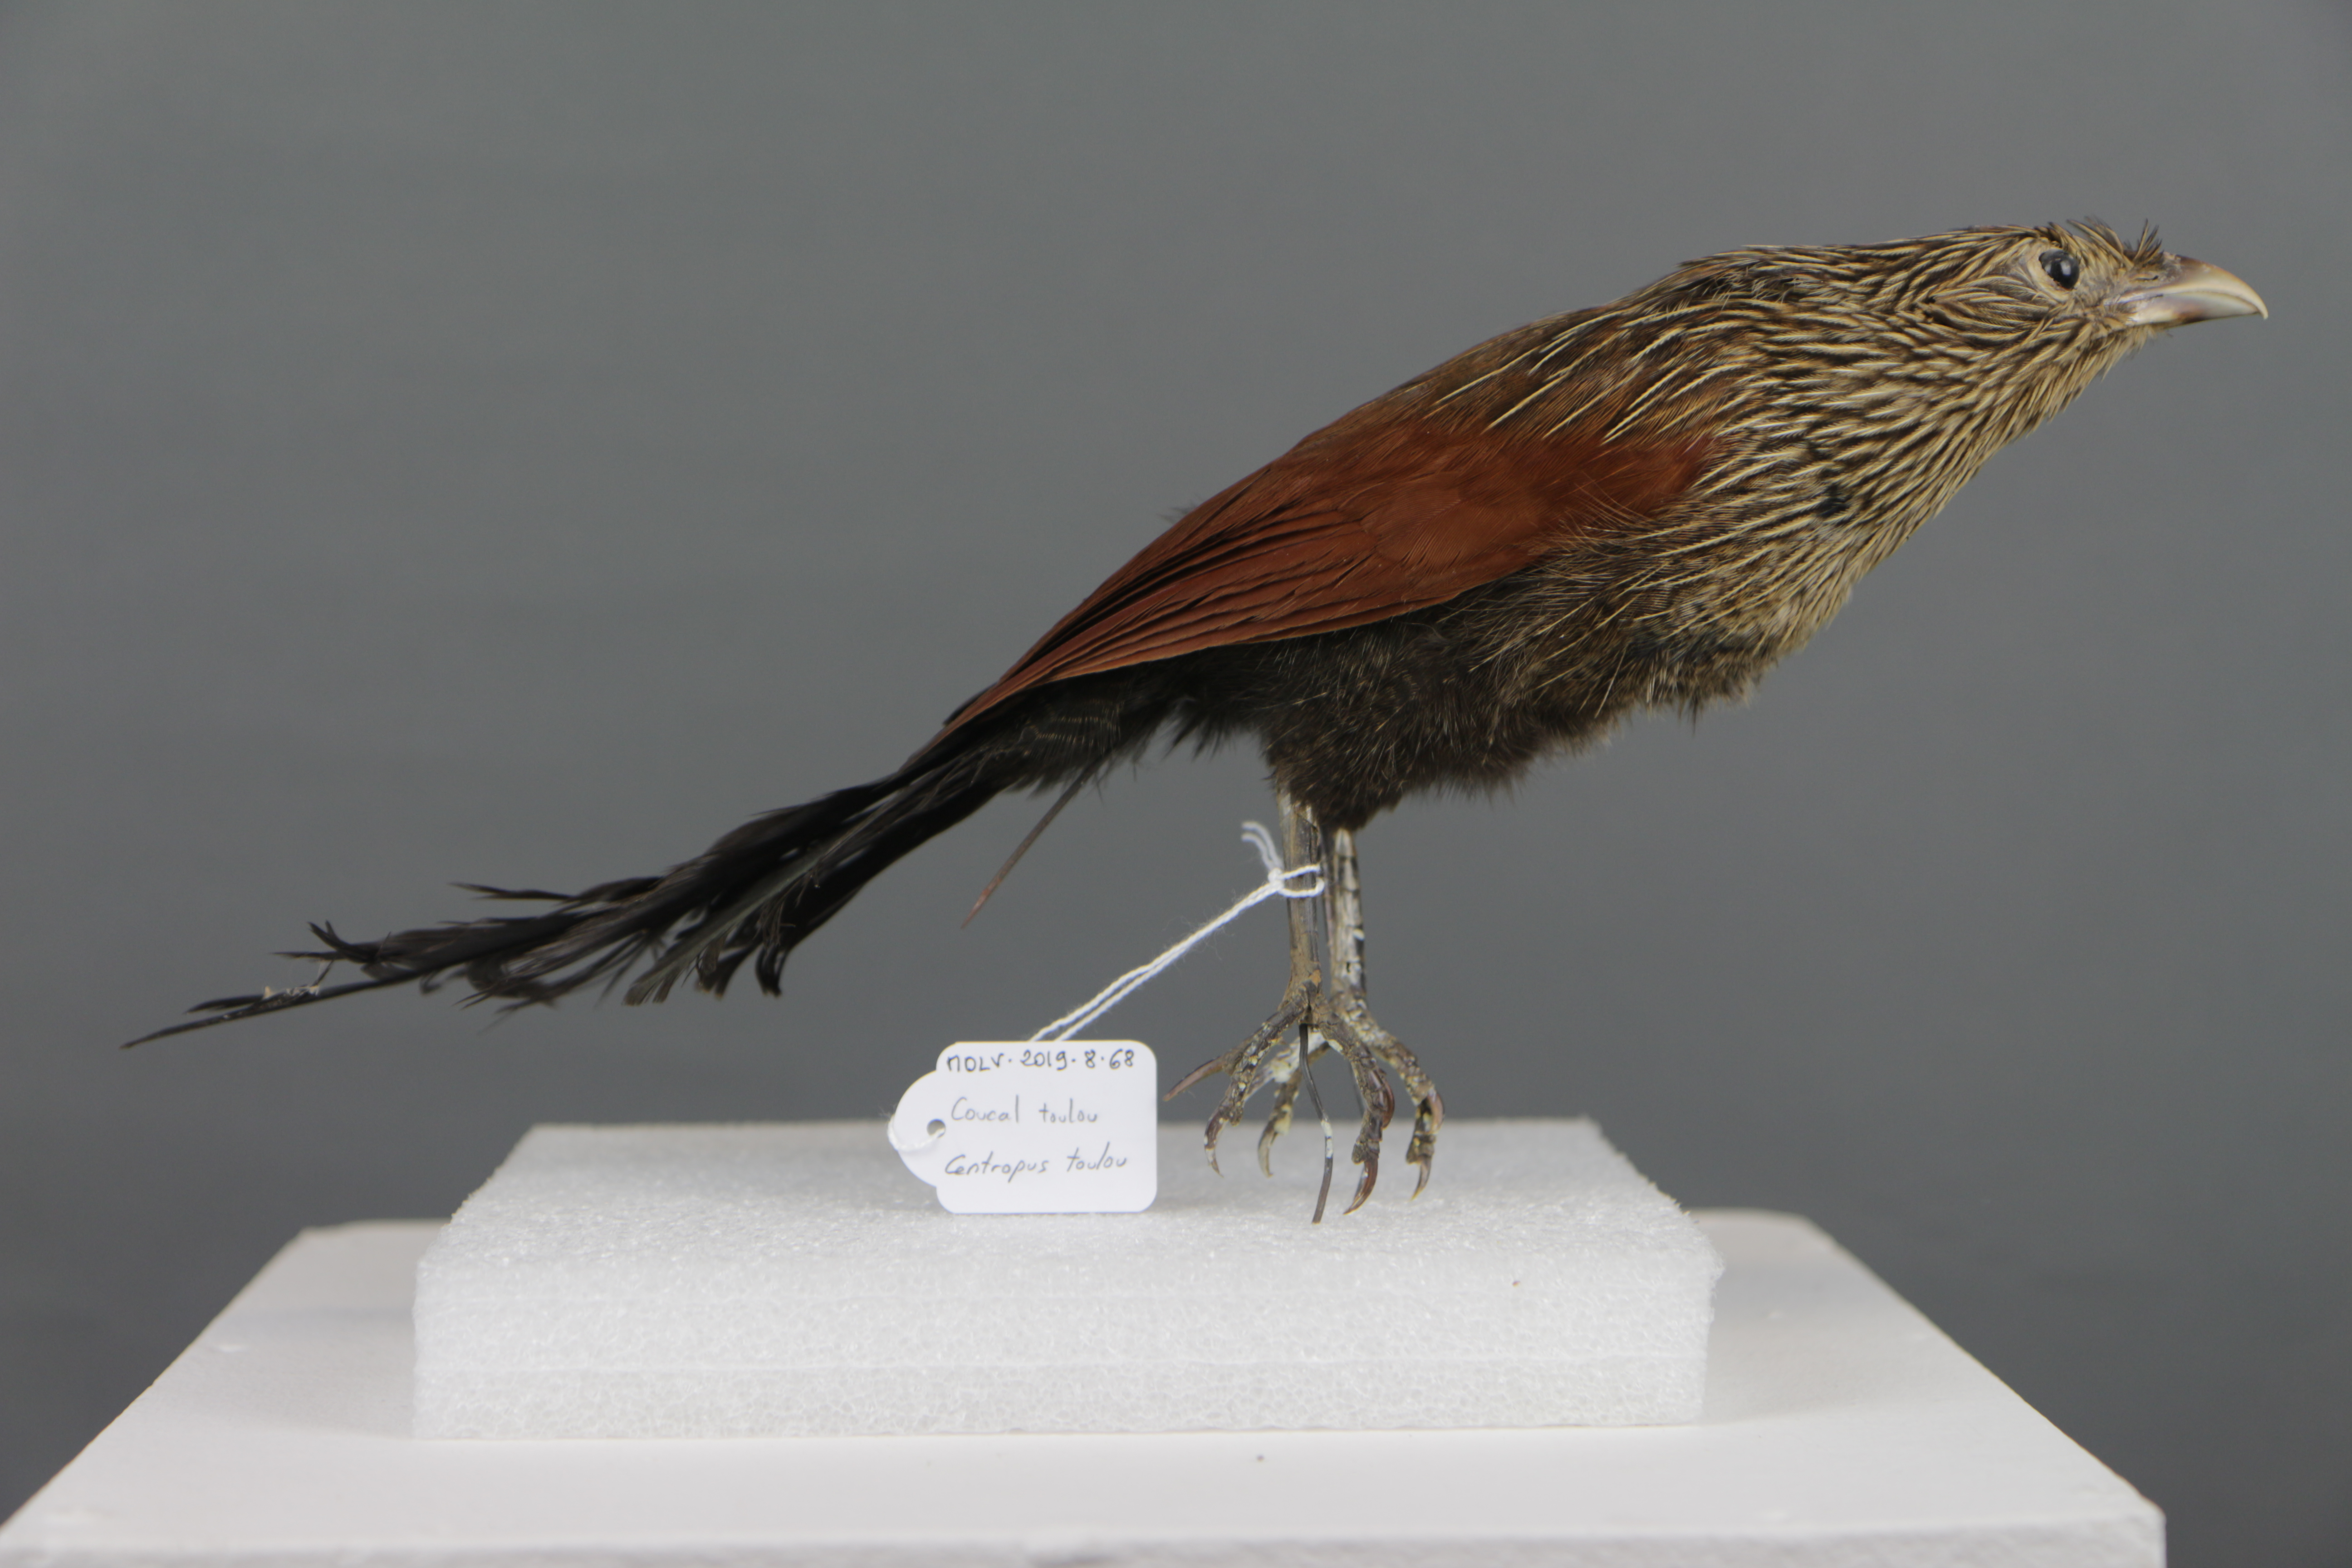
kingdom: Animalia
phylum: Chordata
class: Aves
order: Cuculiformes
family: Cuculidae
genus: Centropus
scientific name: Centropus toulou
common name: Malagasy coucal
